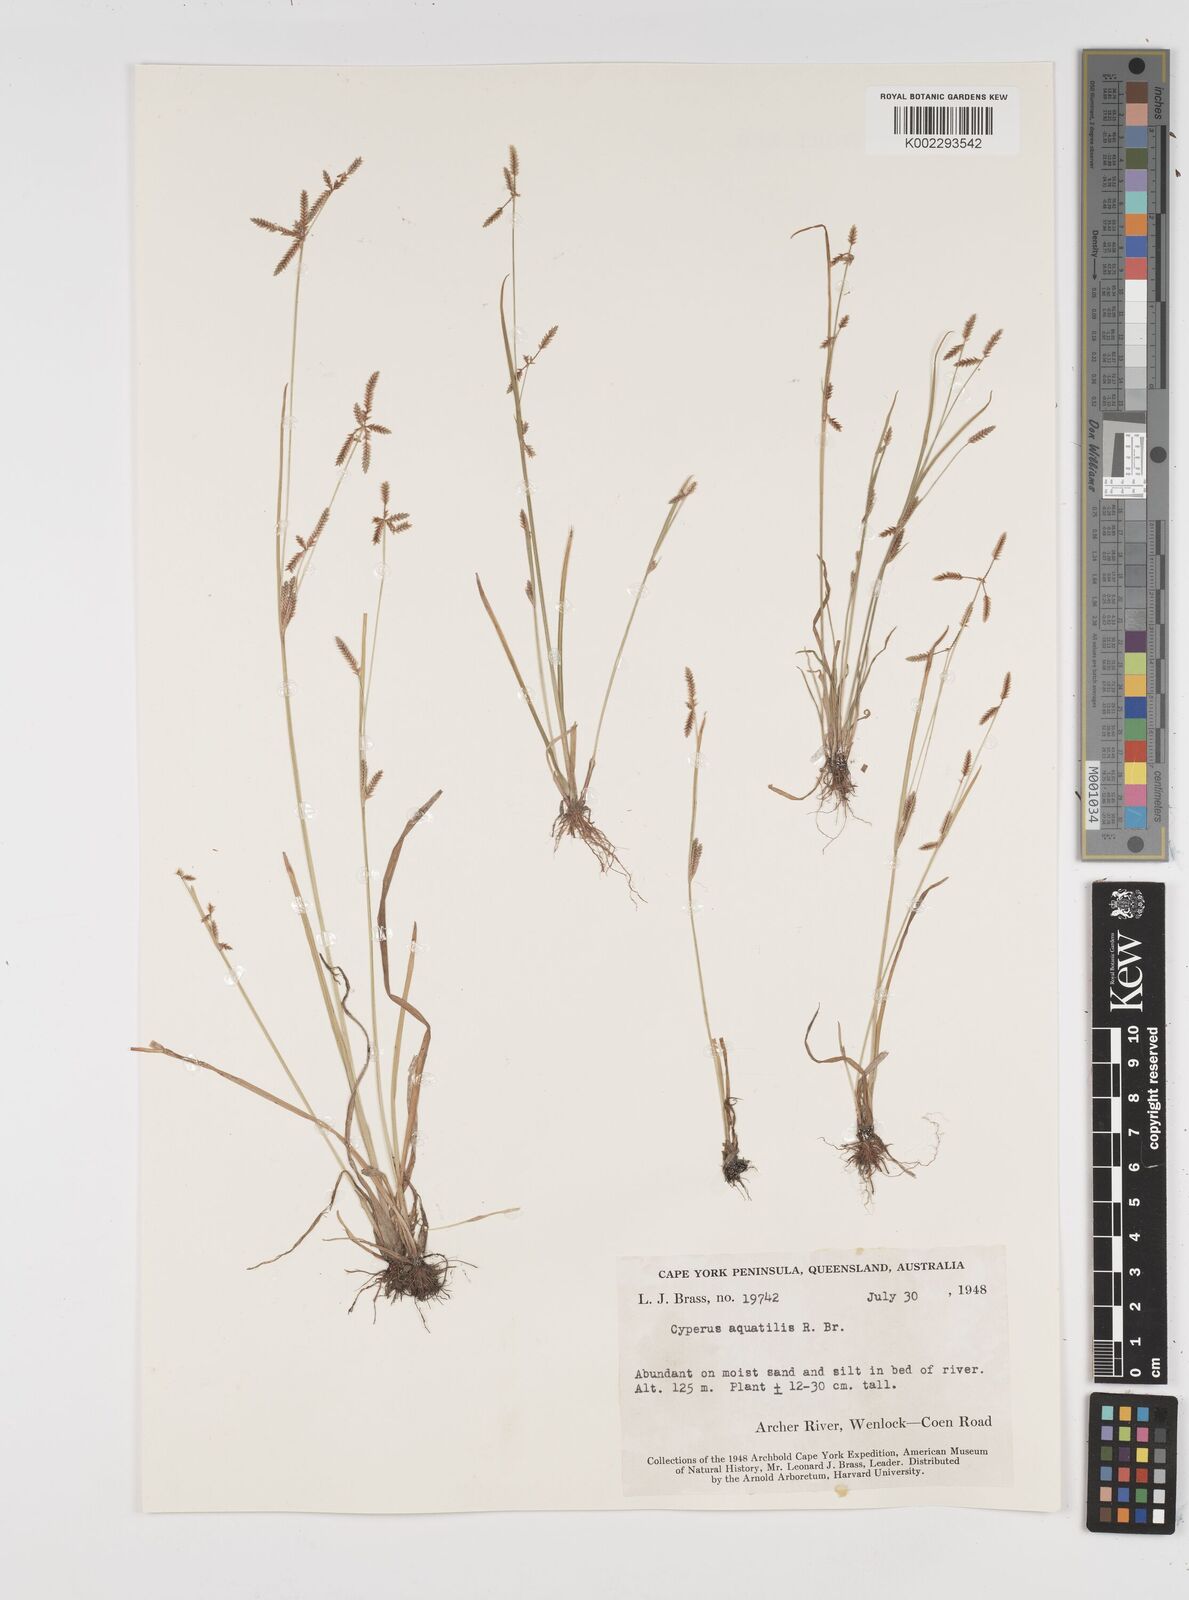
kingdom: Plantae
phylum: Tracheophyta
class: Liliopsida
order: Poales
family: Cyperaceae
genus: Cyperus
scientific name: Cyperus aquatilis
